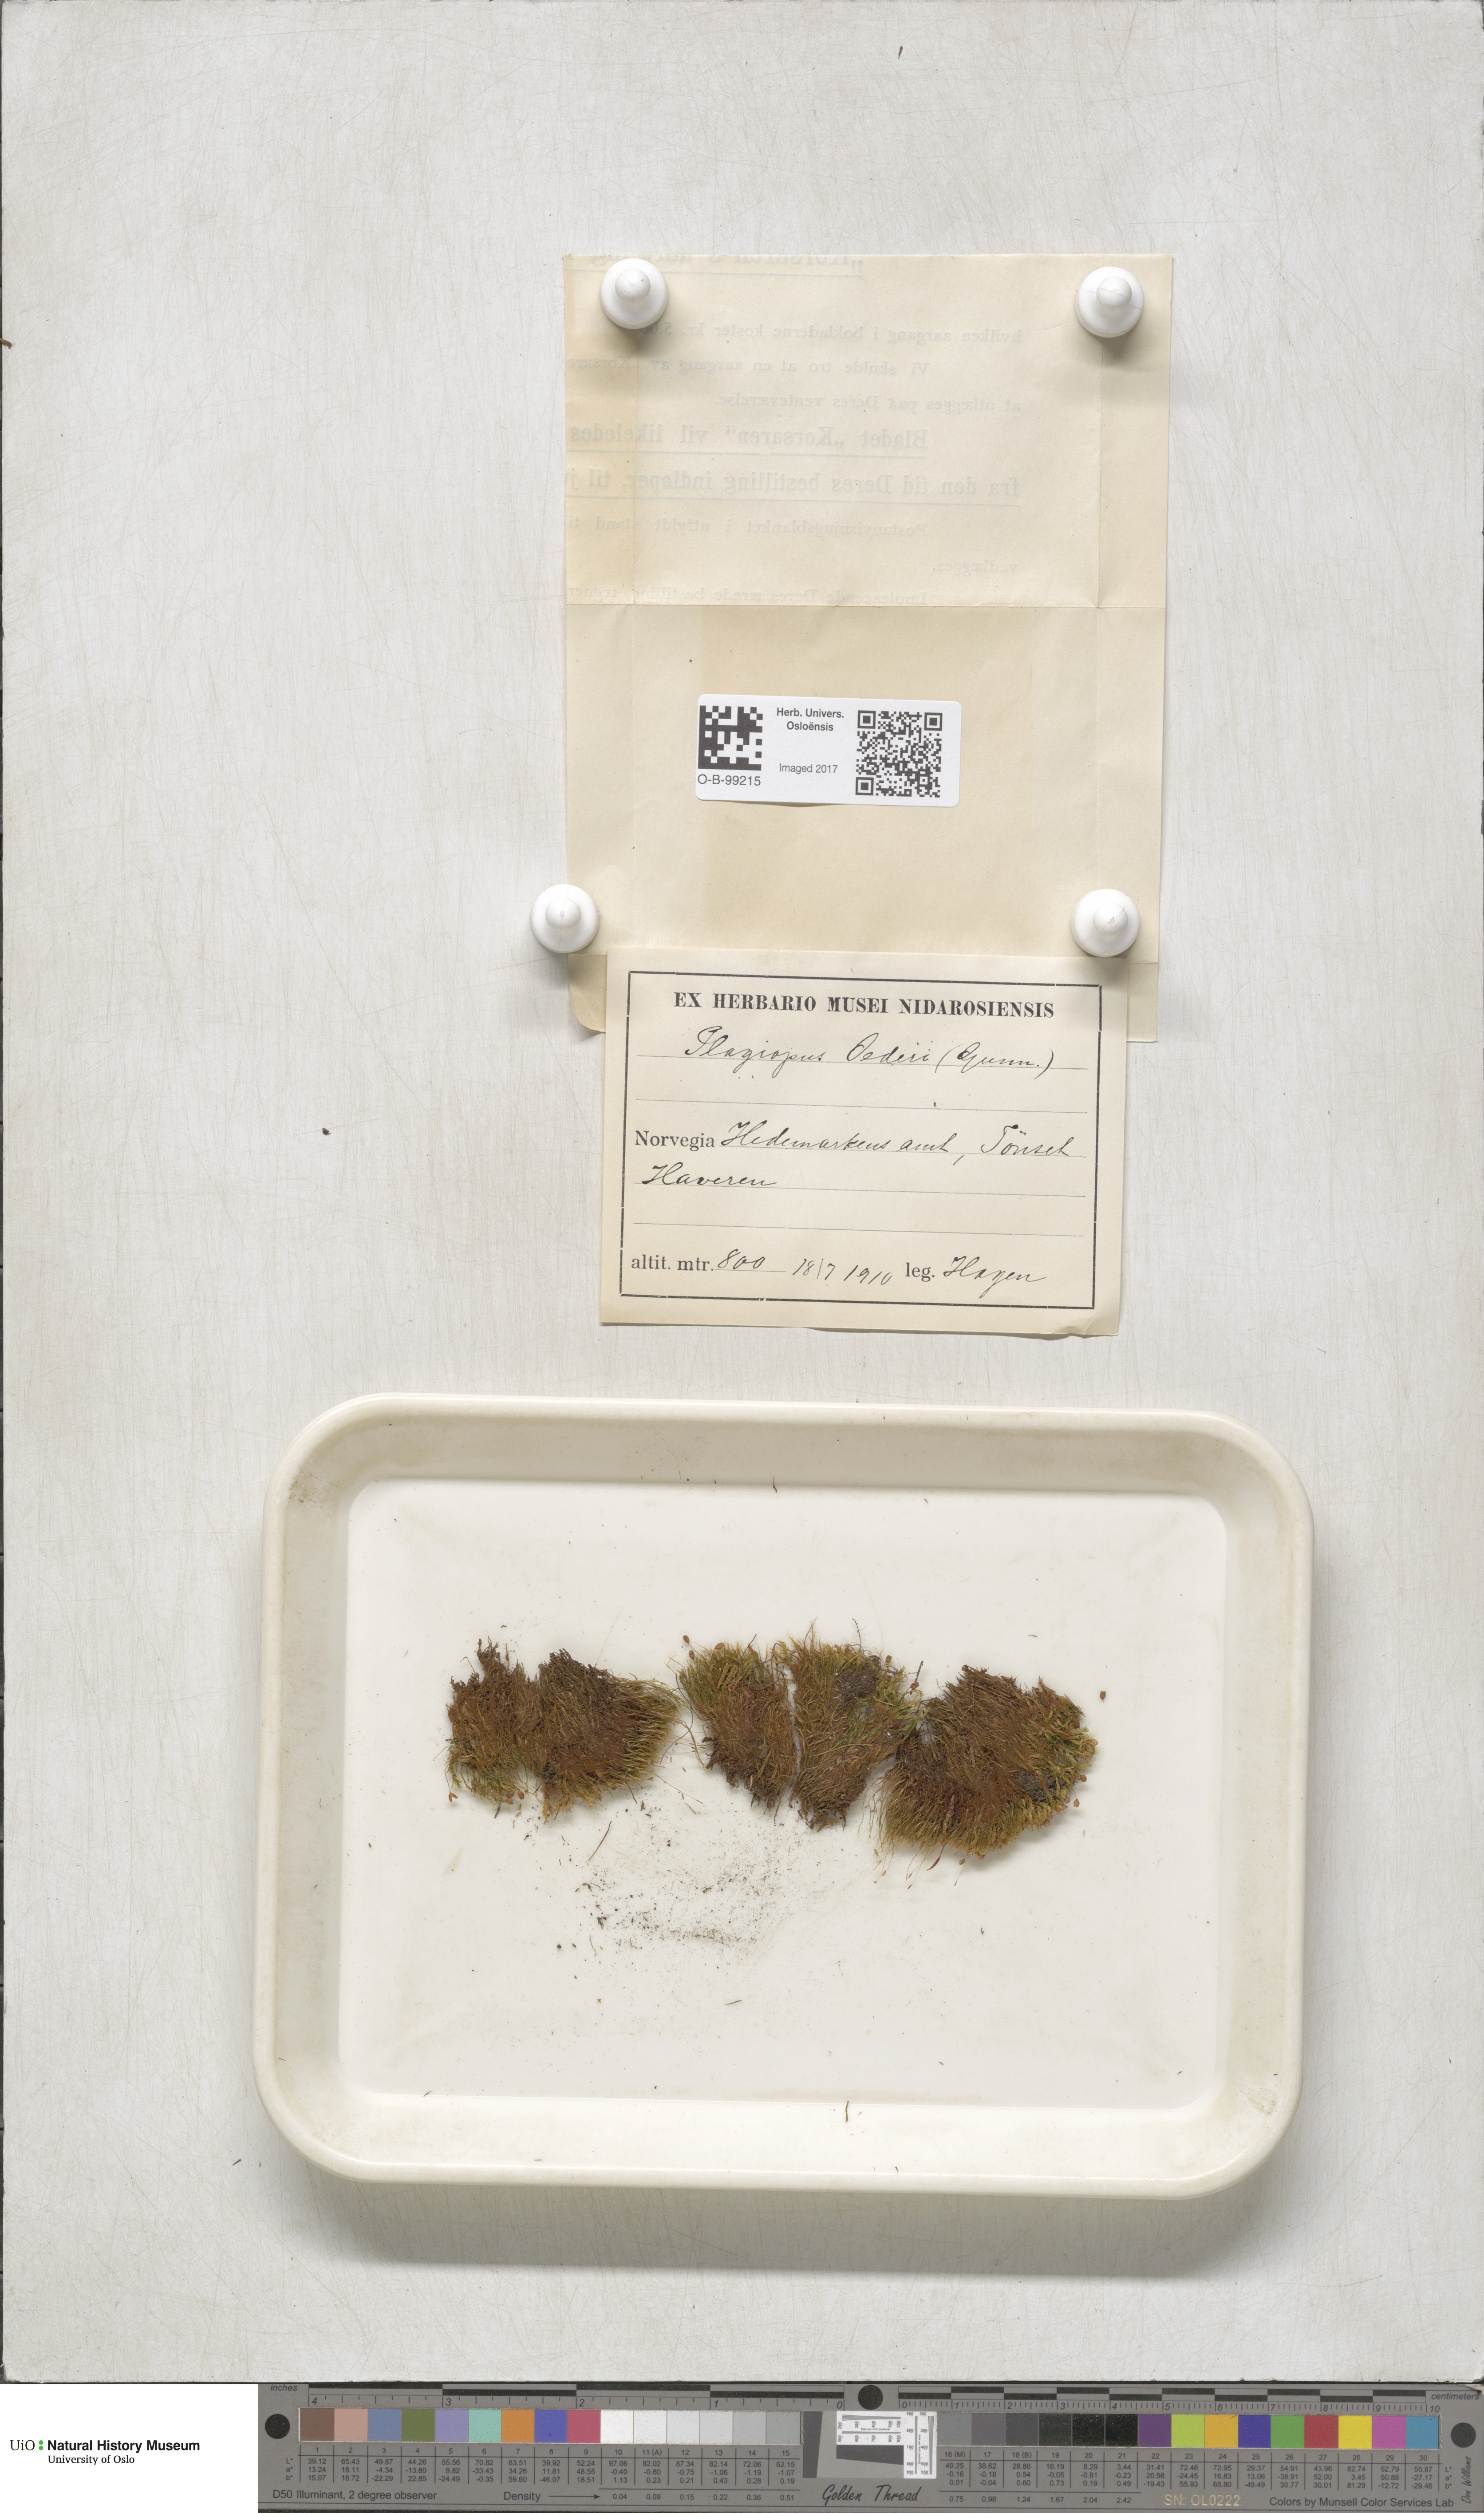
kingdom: Plantae
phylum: Bryophyta
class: Bryopsida
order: Bartramiales
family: Bartramiaceae
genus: Plagiopus
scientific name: Plagiopus oederianus
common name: Oeder's apple moss
